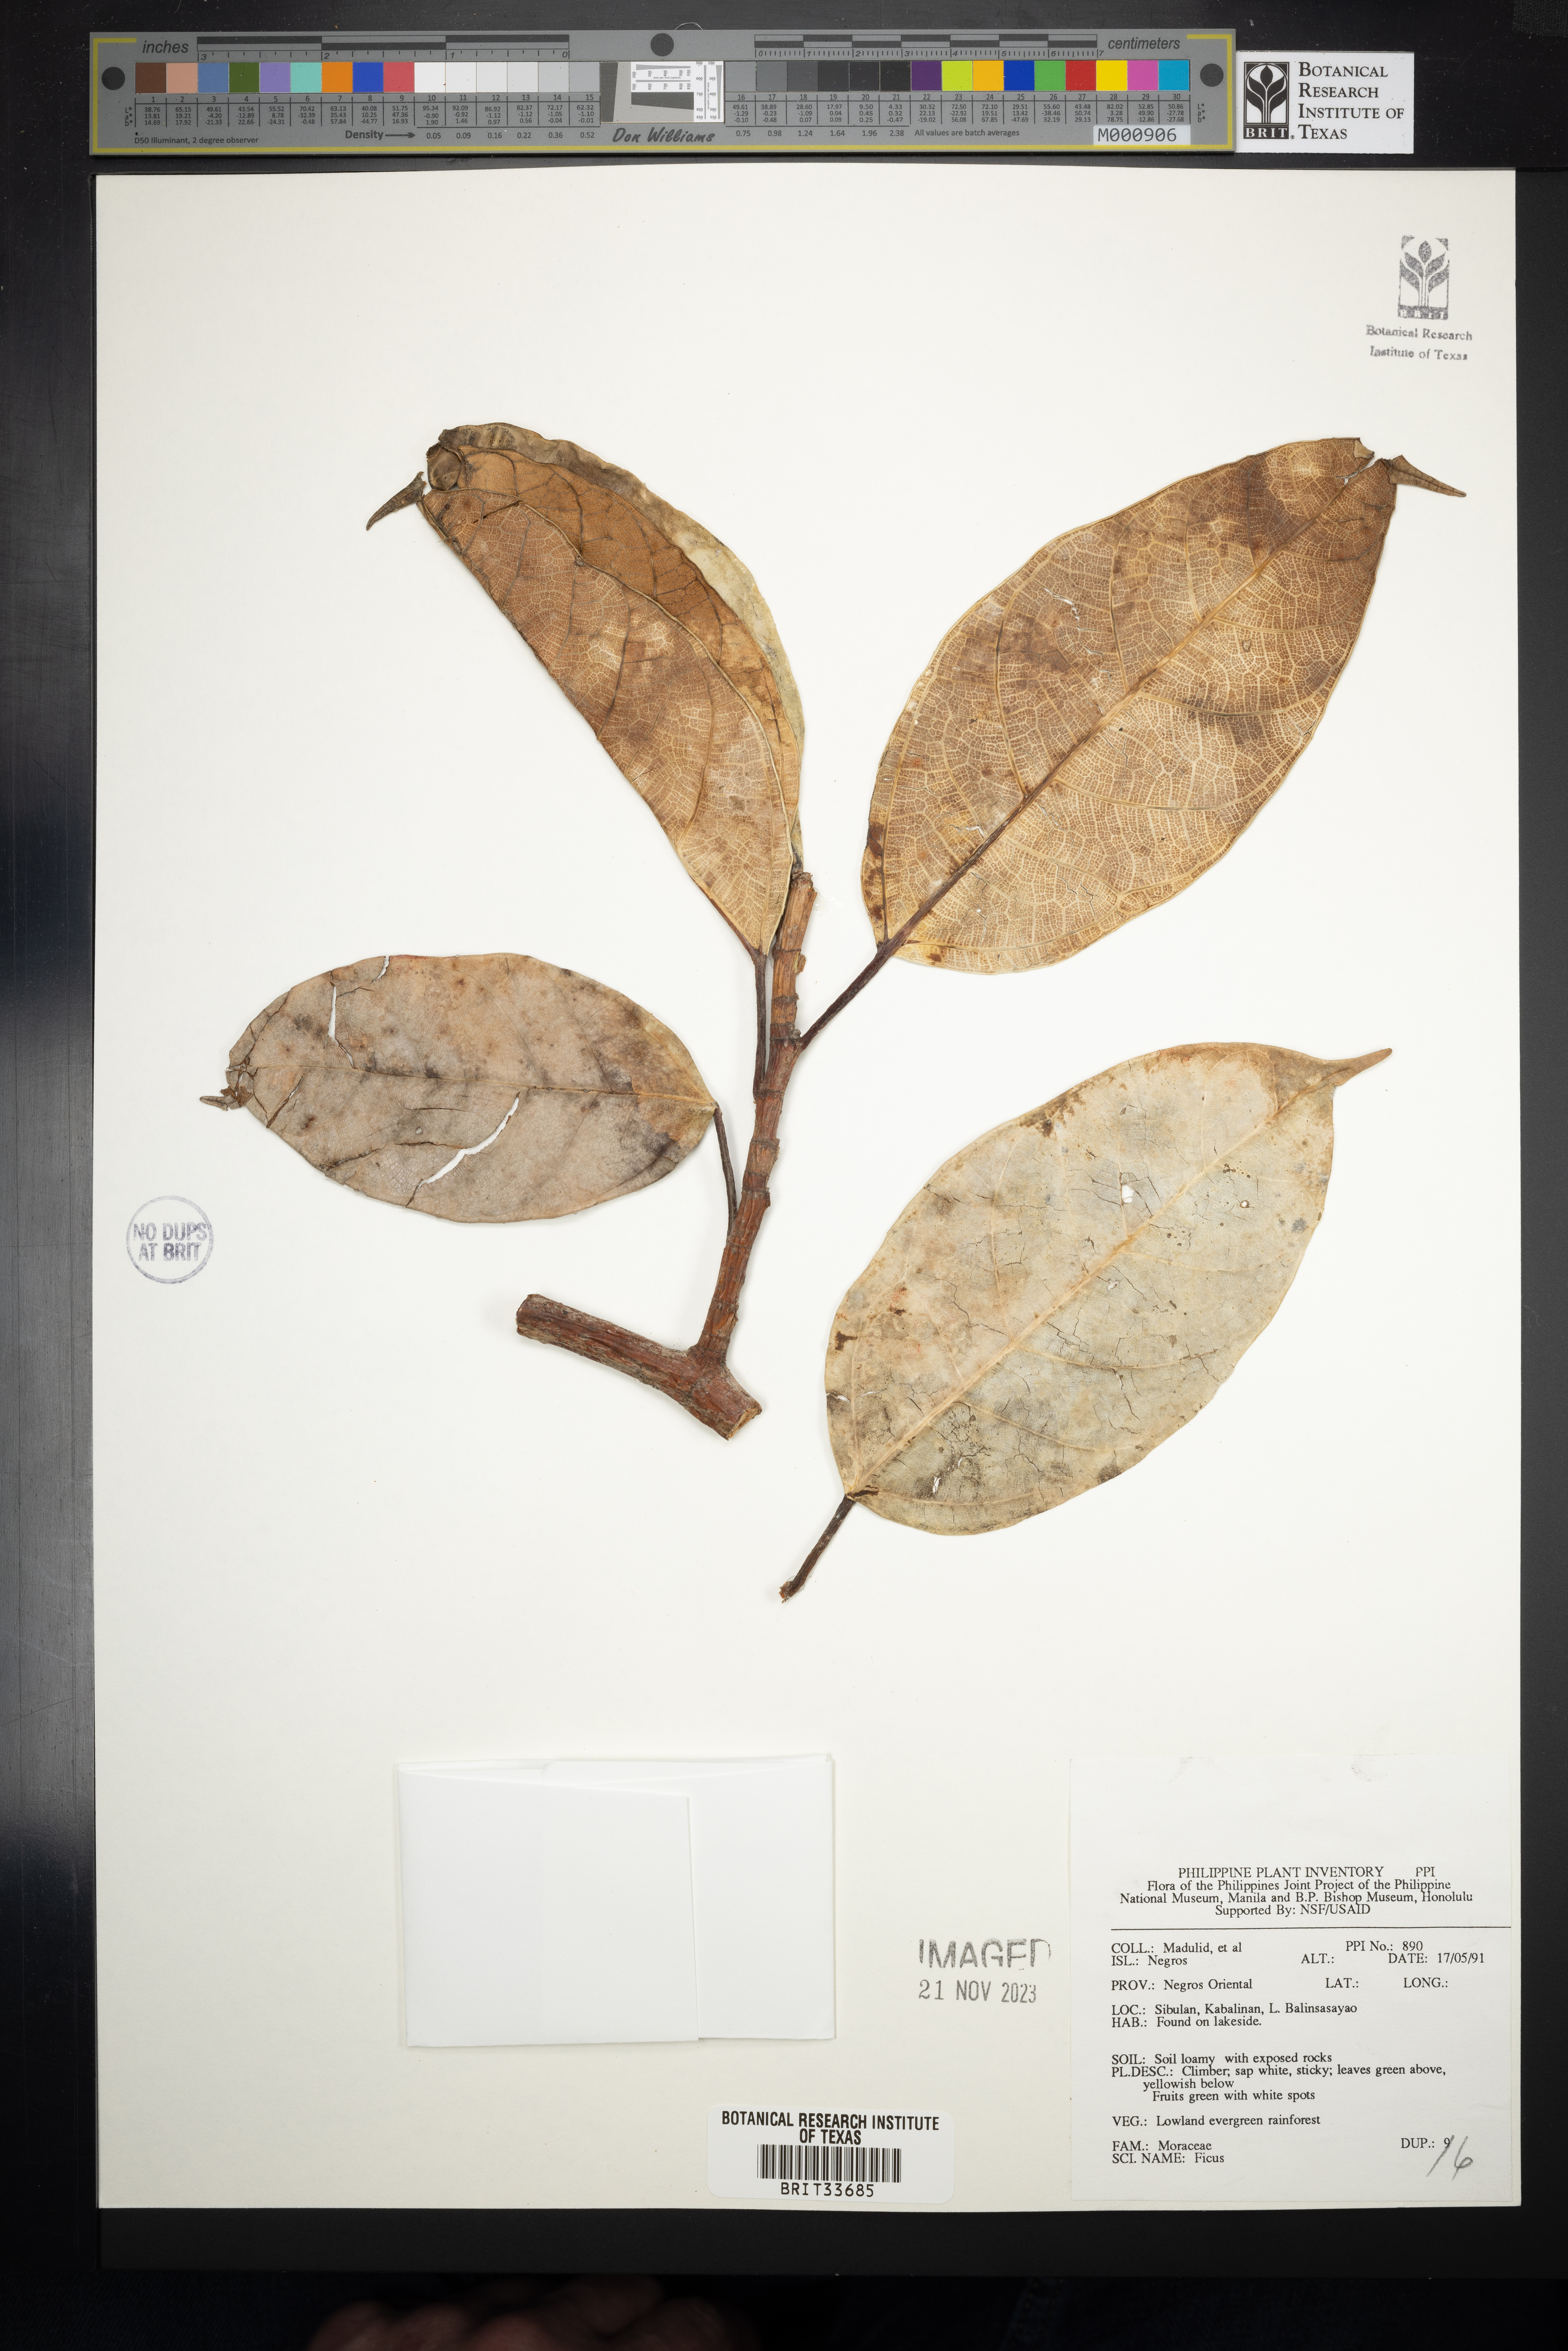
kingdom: Plantae
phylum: Tracheophyta
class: Magnoliopsida
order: Rosales
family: Moraceae
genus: Ficus
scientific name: Ficus
